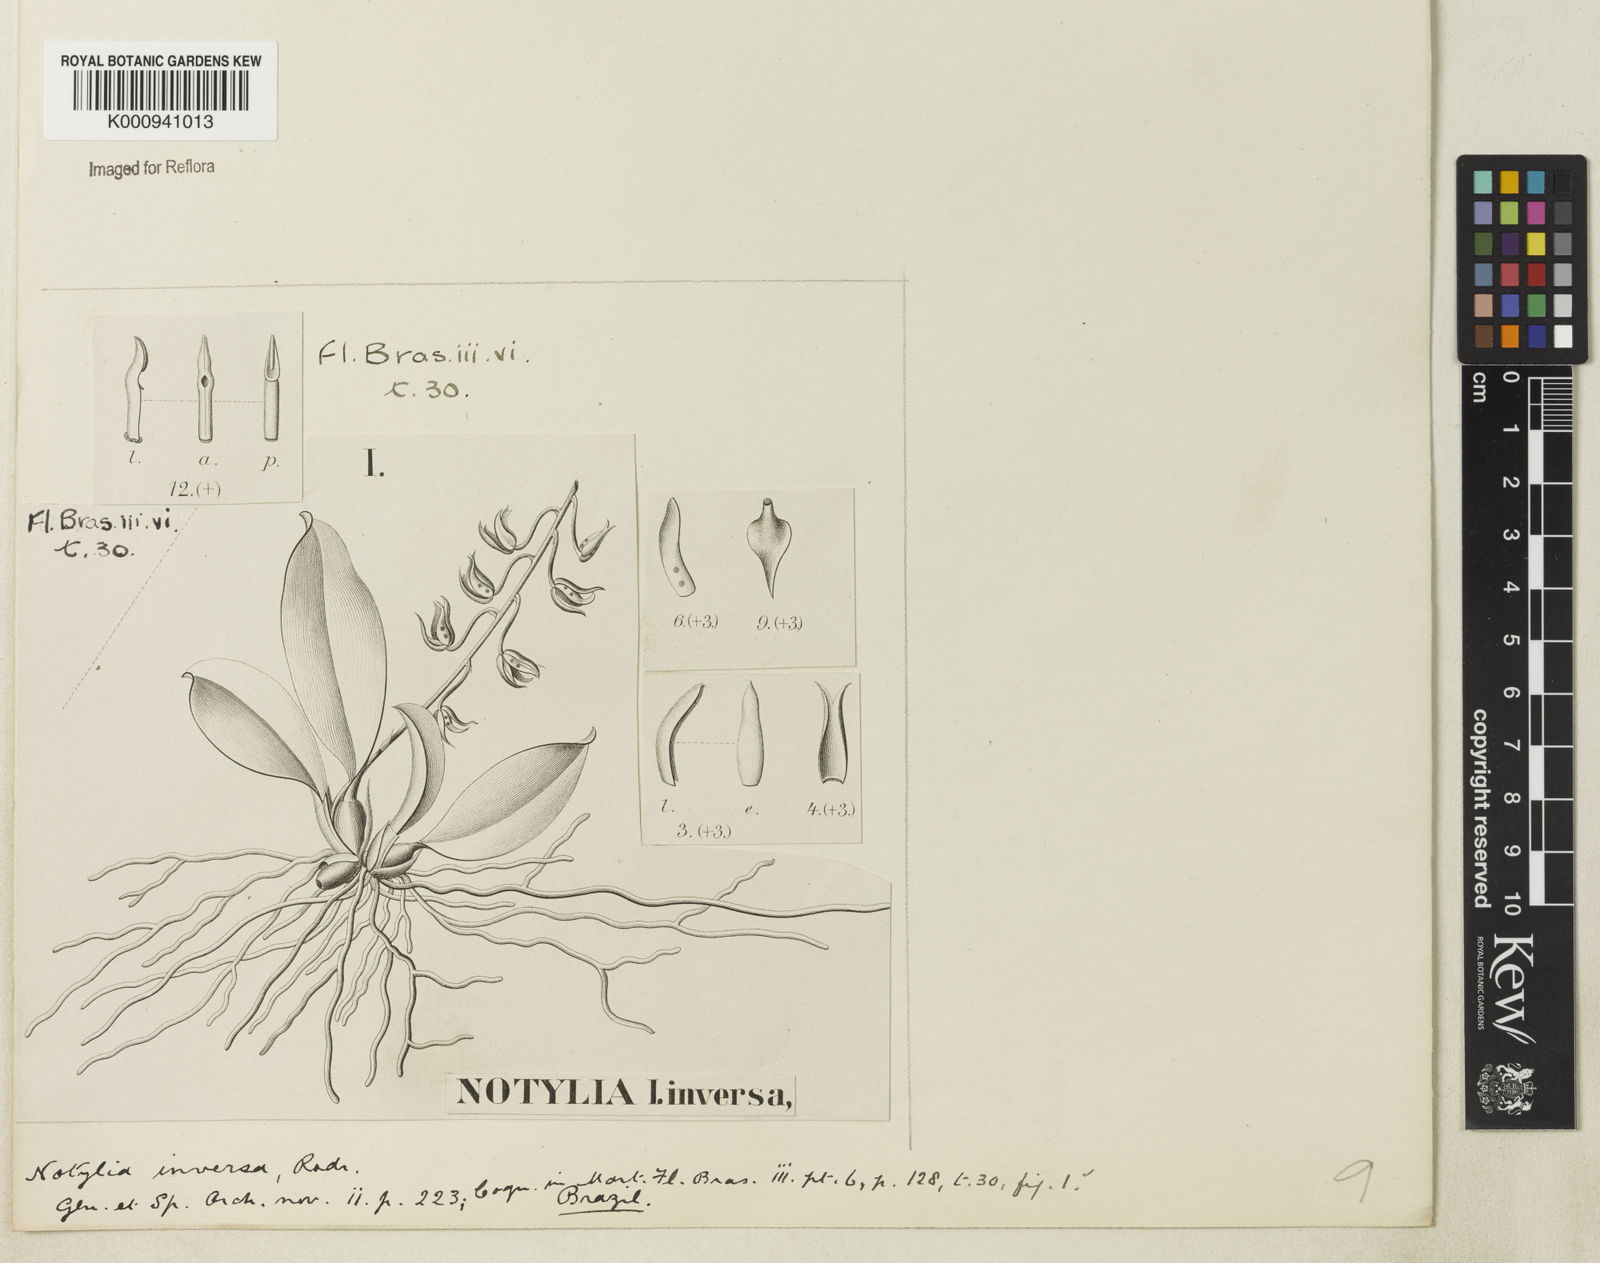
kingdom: Plantae
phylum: Tracheophyta
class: Liliopsida
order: Asparagales
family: Orchidaceae
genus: Notylia
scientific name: Notylia inversa
